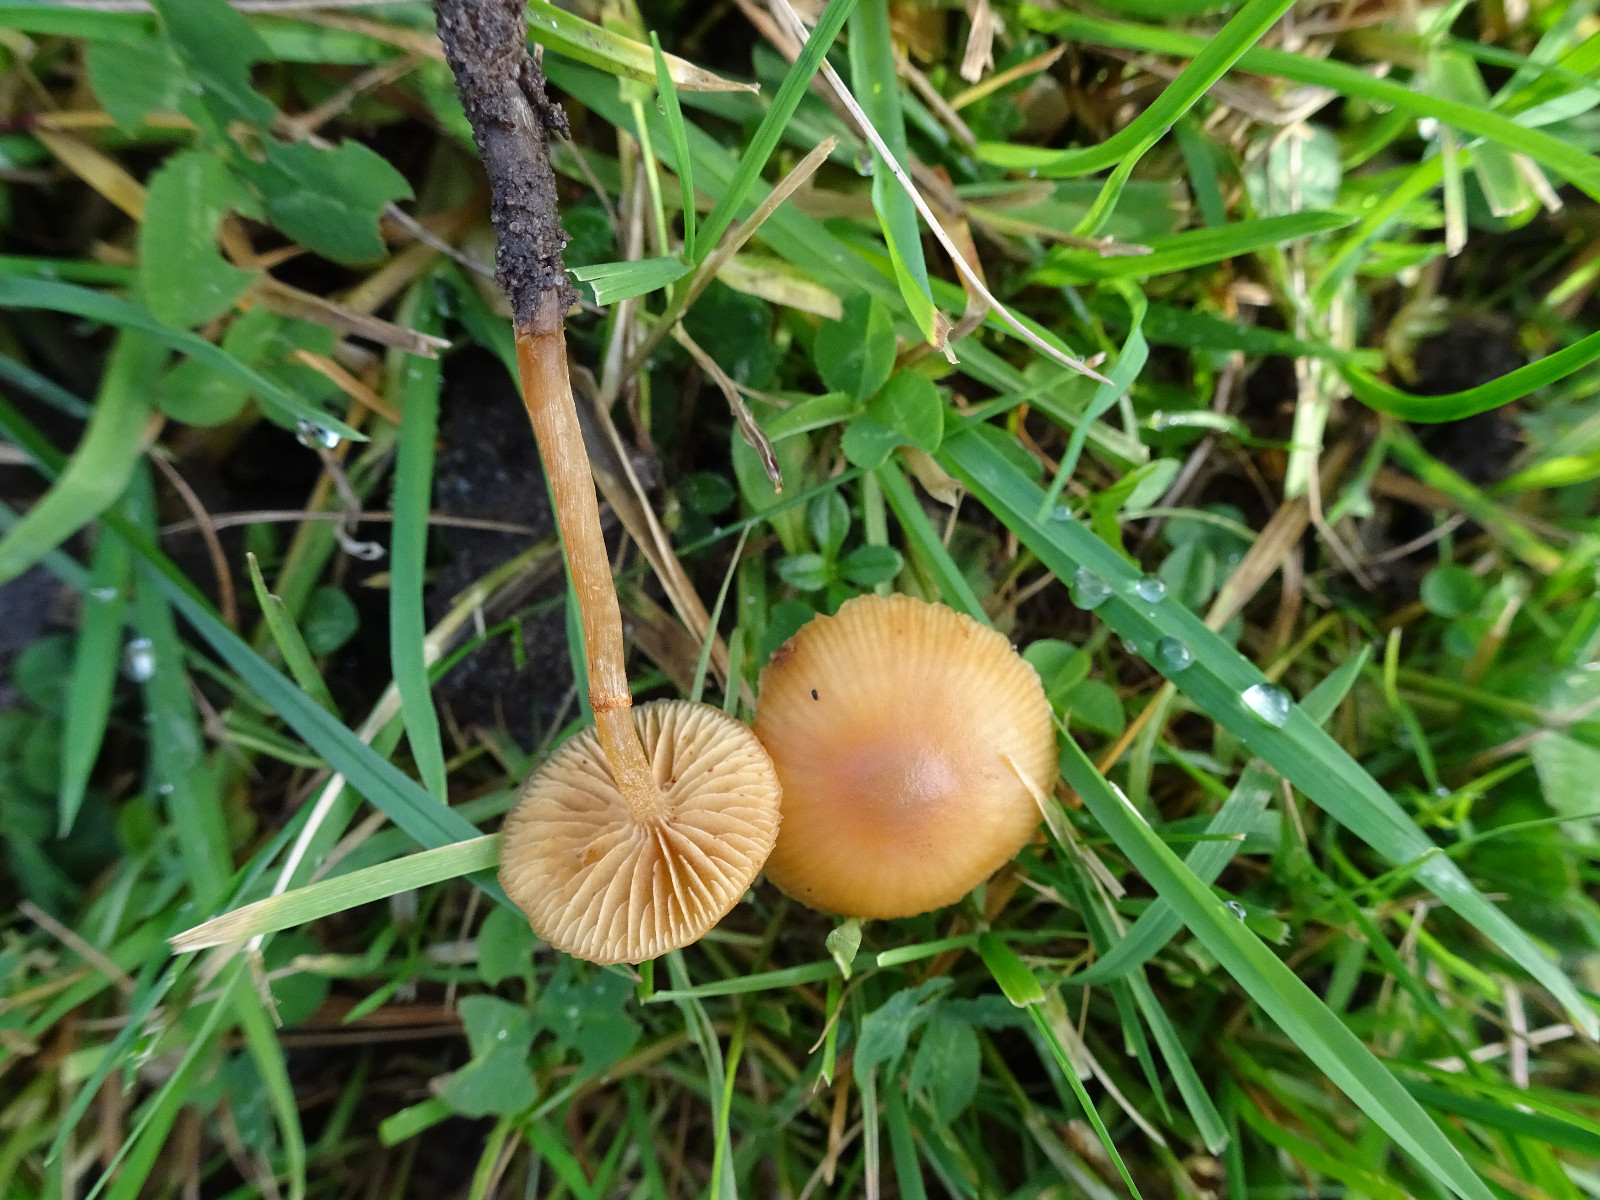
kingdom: Fungi
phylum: Basidiomycota
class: Agaricomycetes
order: Agaricales
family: Hymenogastraceae
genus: Galerina
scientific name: Galerina
